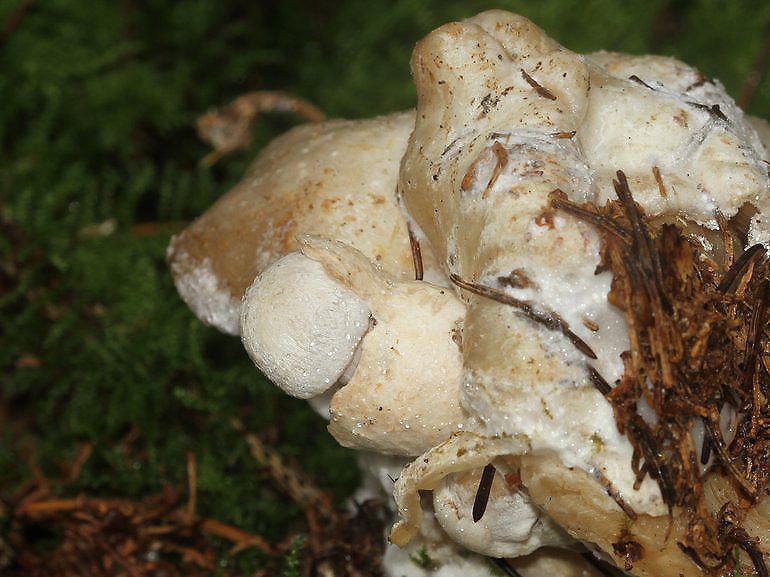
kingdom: Fungi
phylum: Basidiomycota
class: Agaricomycetes
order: Agaricales
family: Pluteaceae
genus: Volvariella
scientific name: Volvariella surrecta
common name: snyltende posesvamp
